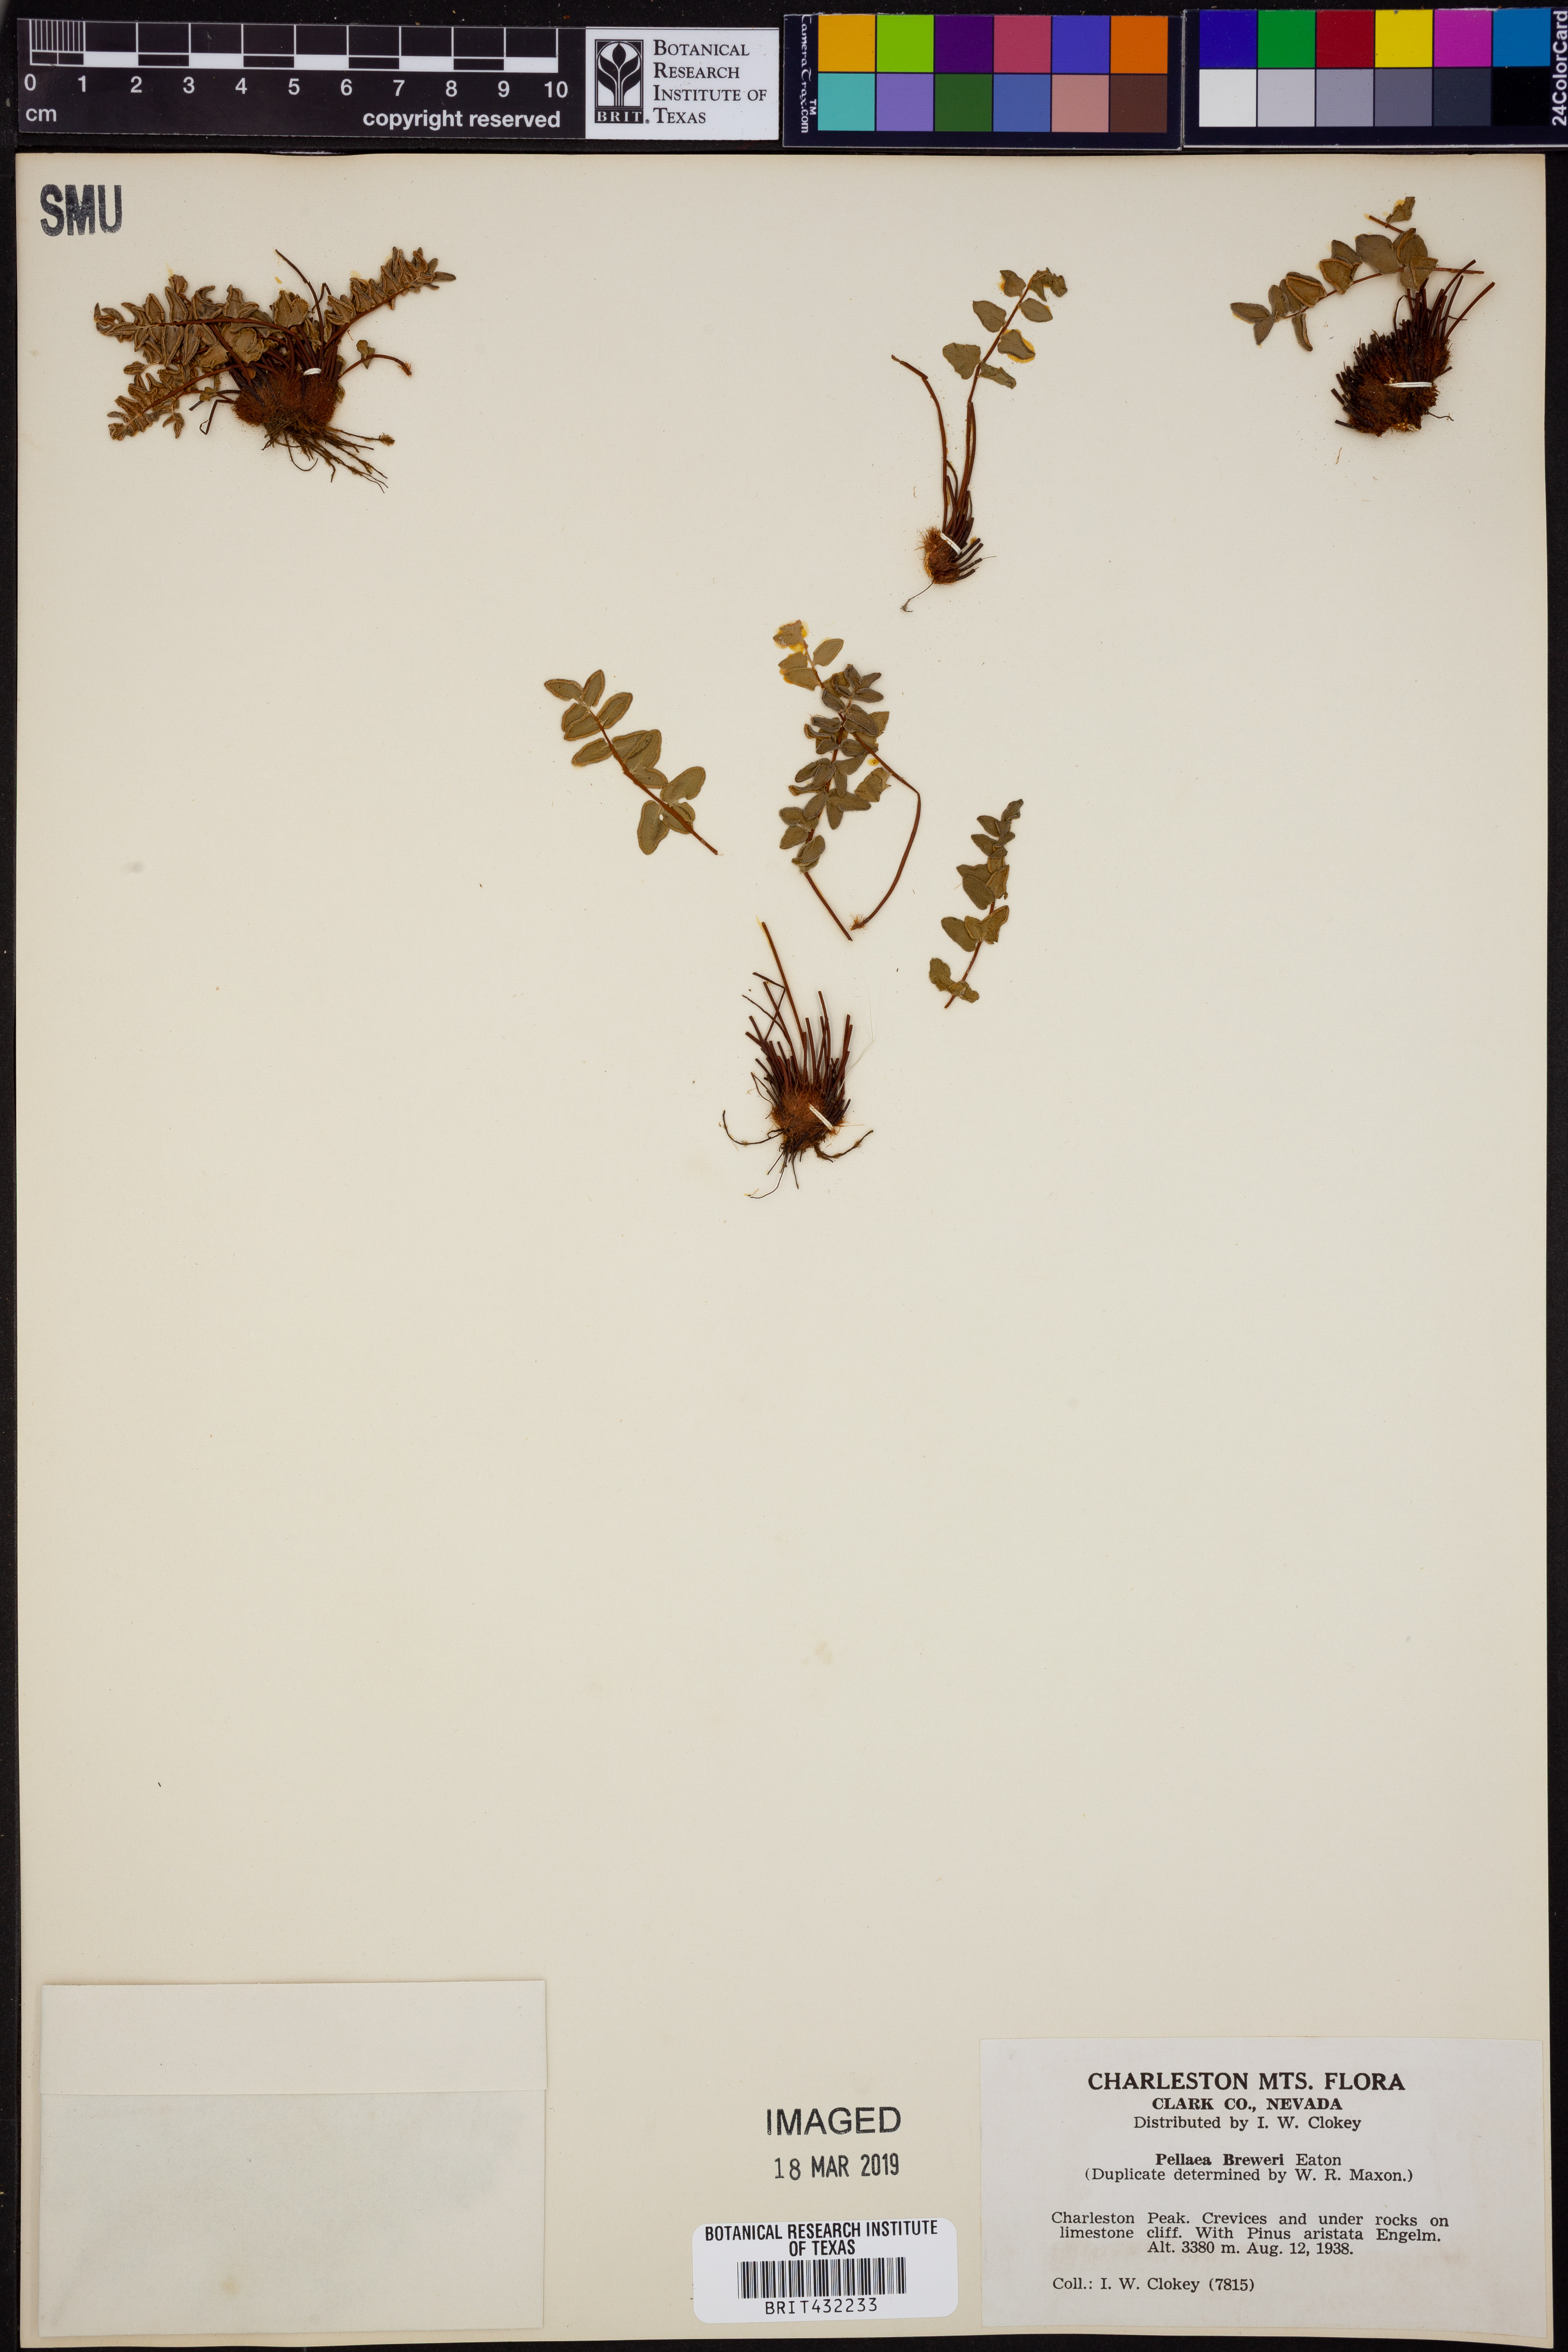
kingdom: Plantae
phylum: Tracheophyta
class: Polypodiopsida
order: Polypodiales
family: Pteridaceae
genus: Pellaea
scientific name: Pellaea breweri
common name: Brewer's cliffbrake
